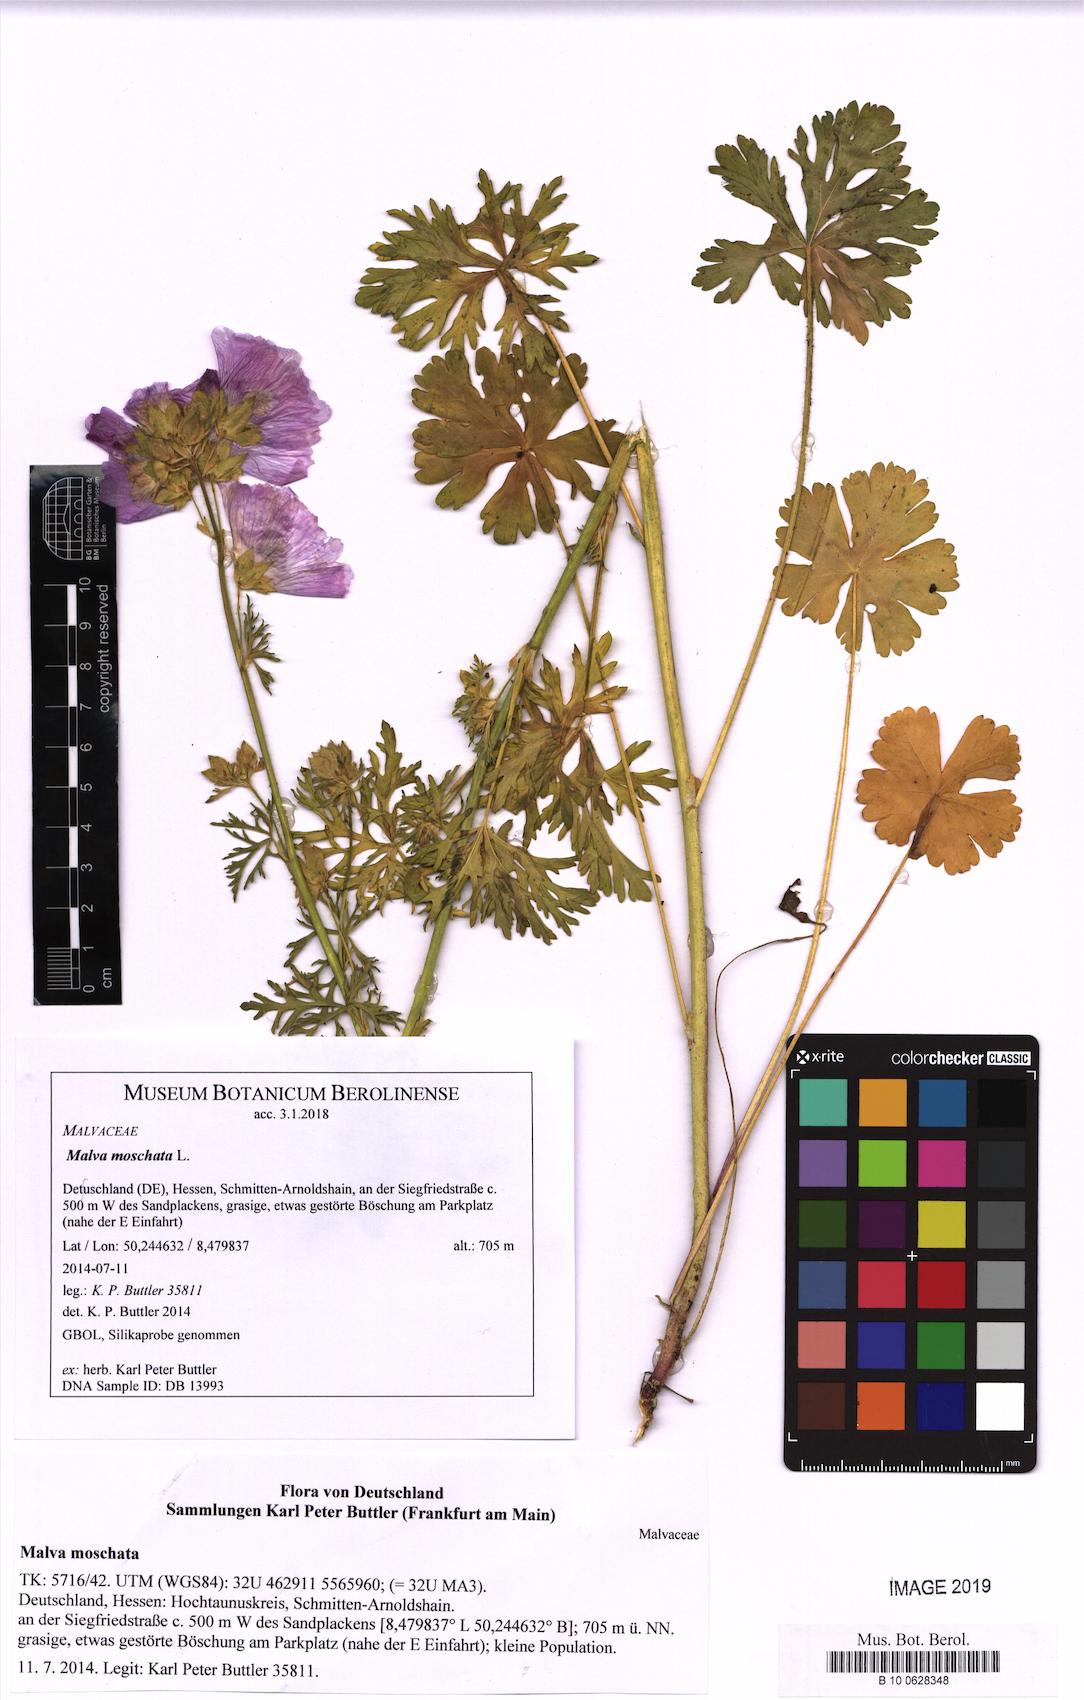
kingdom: Plantae
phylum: Tracheophyta
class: Magnoliopsida
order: Malvales
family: Malvaceae
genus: Malva
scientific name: Malva moschata
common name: Musk mallow
